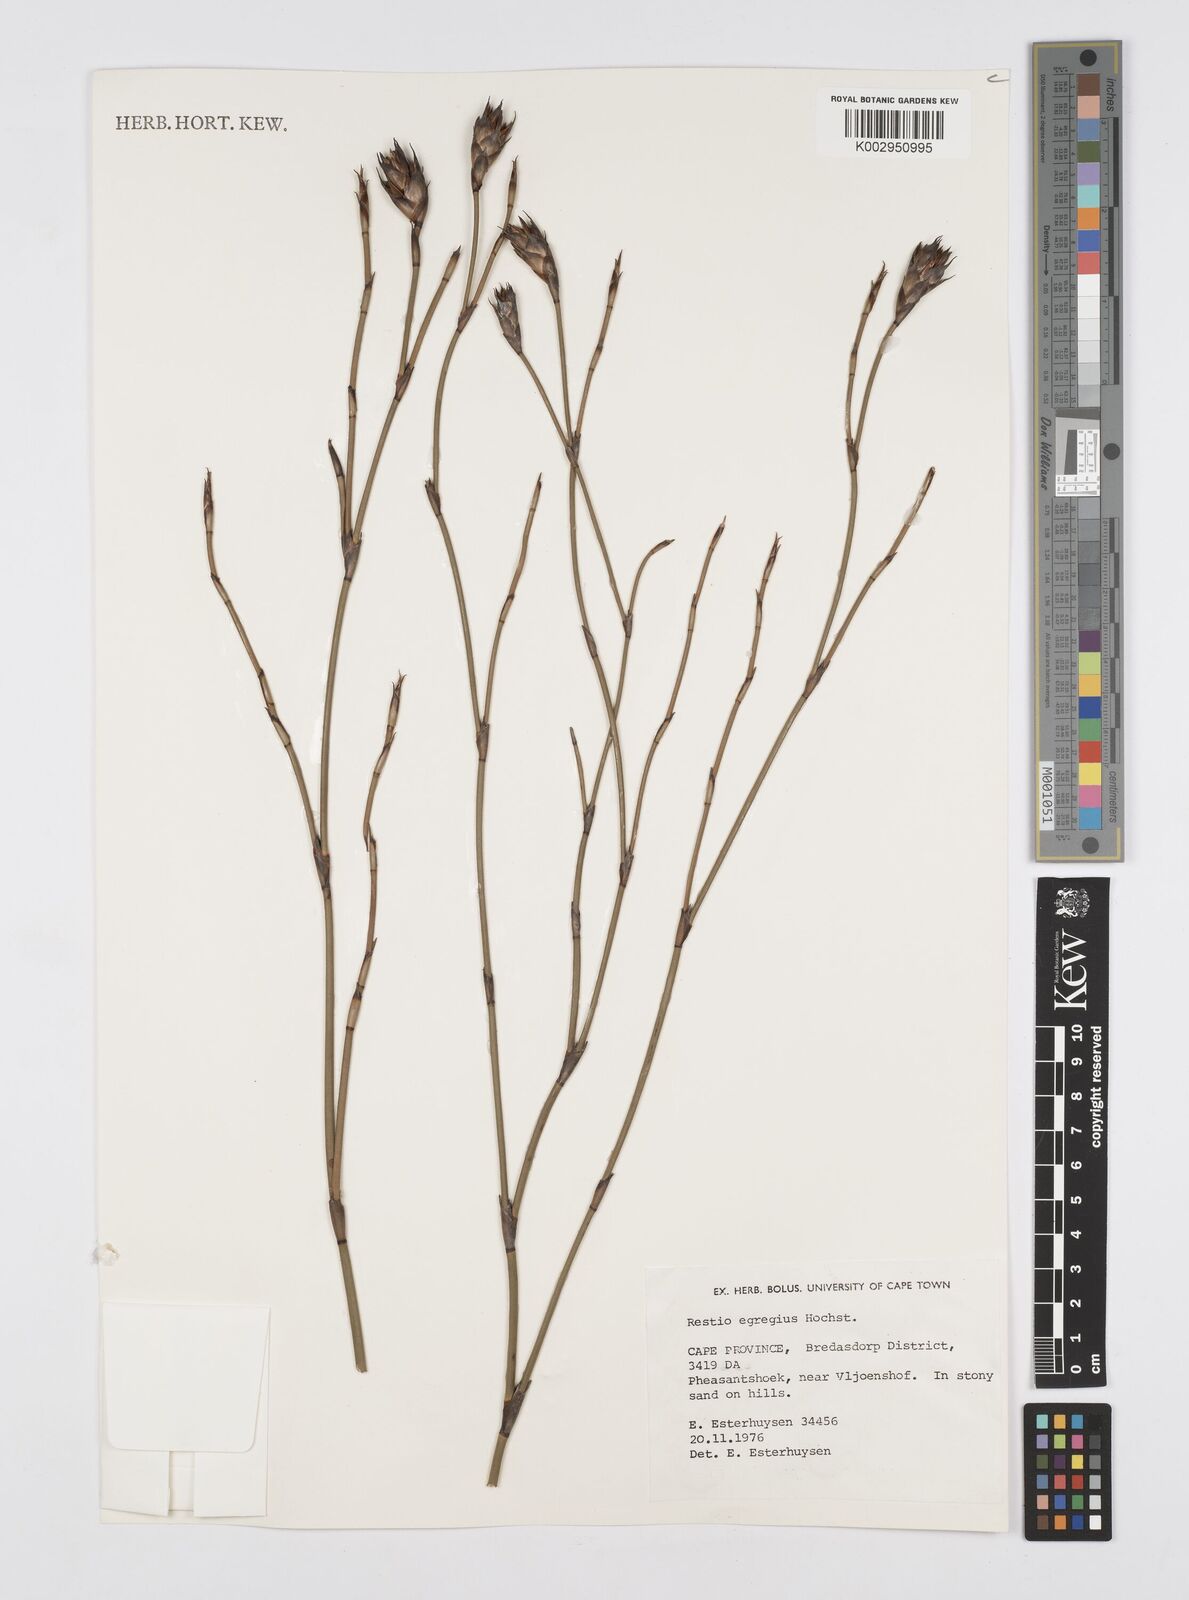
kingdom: Plantae
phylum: Tracheophyta
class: Liliopsida
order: Poales
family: Restionaceae
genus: Restio
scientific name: Restio egregius
